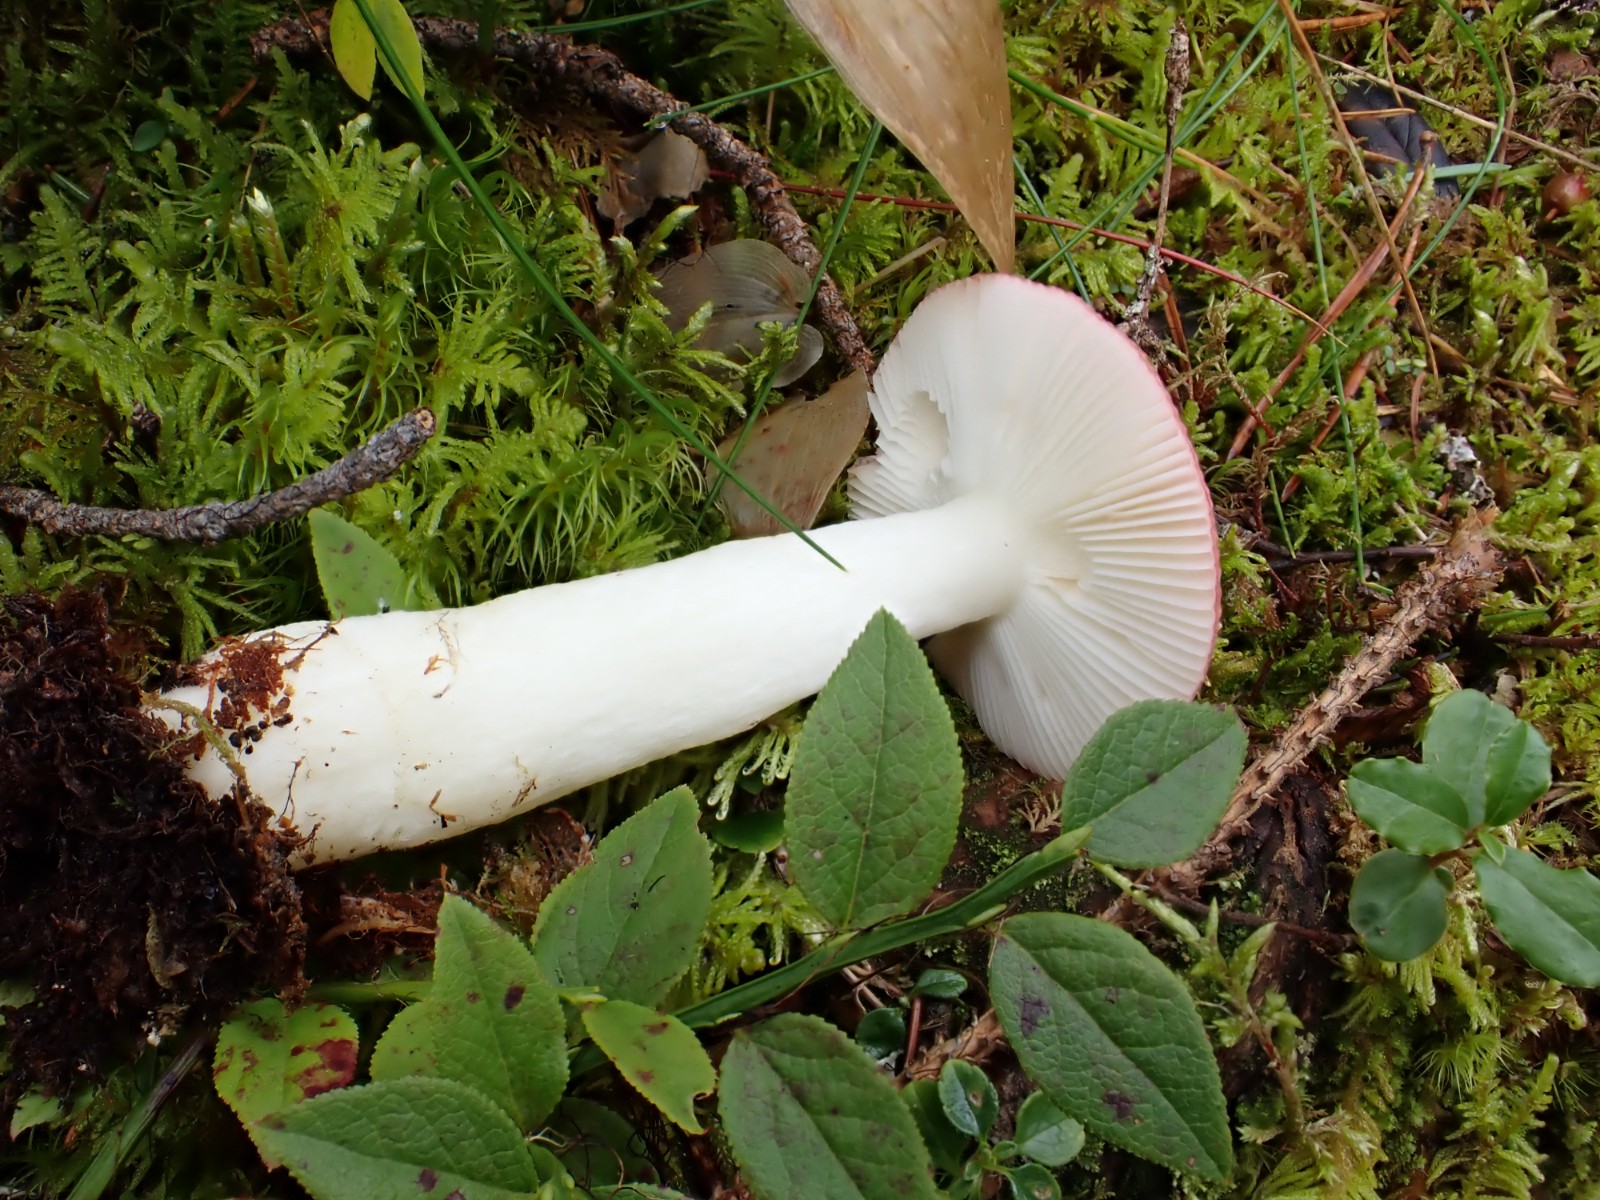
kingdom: Fungi
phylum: Basidiomycota
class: Agaricomycetes
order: Russulales
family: Russulaceae
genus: Russula
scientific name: Russula aquosa
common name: vand-skørhat
